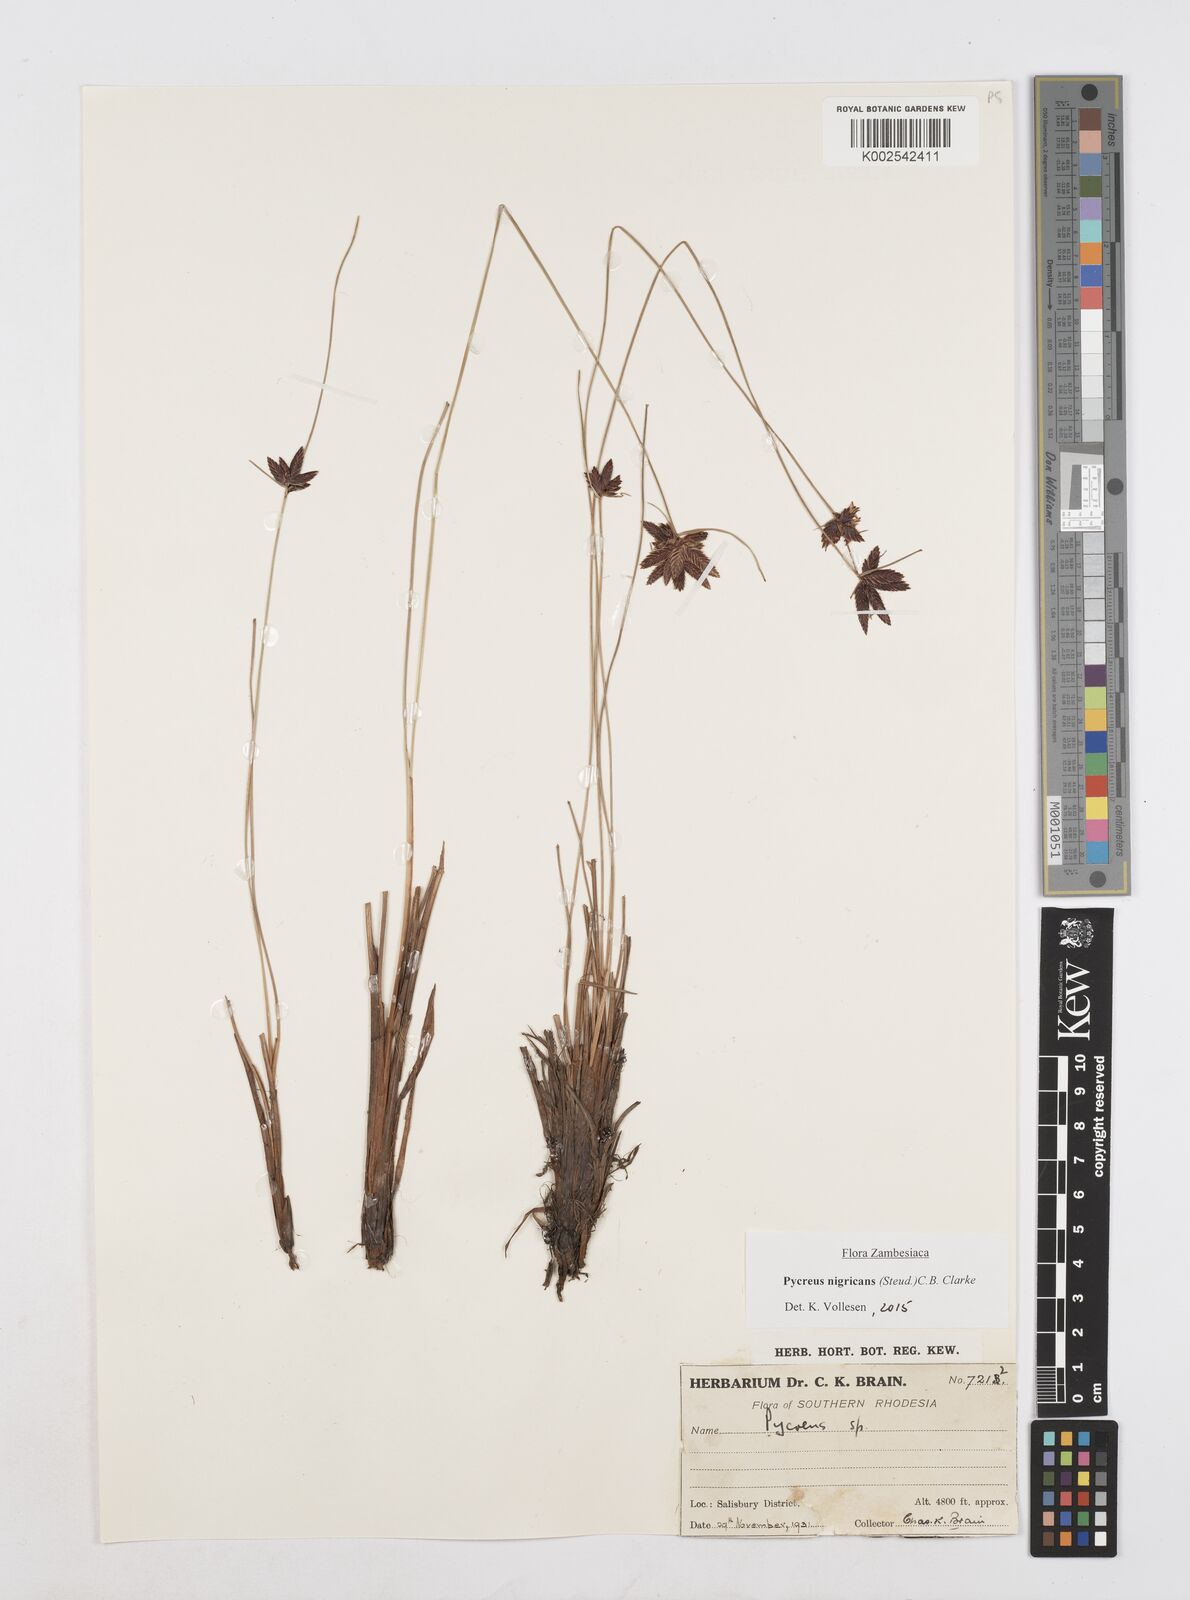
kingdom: Plantae
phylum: Tracheophyta
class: Liliopsida
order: Poales
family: Cyperaceae
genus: Cyperus
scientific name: Cyperus nigricans
